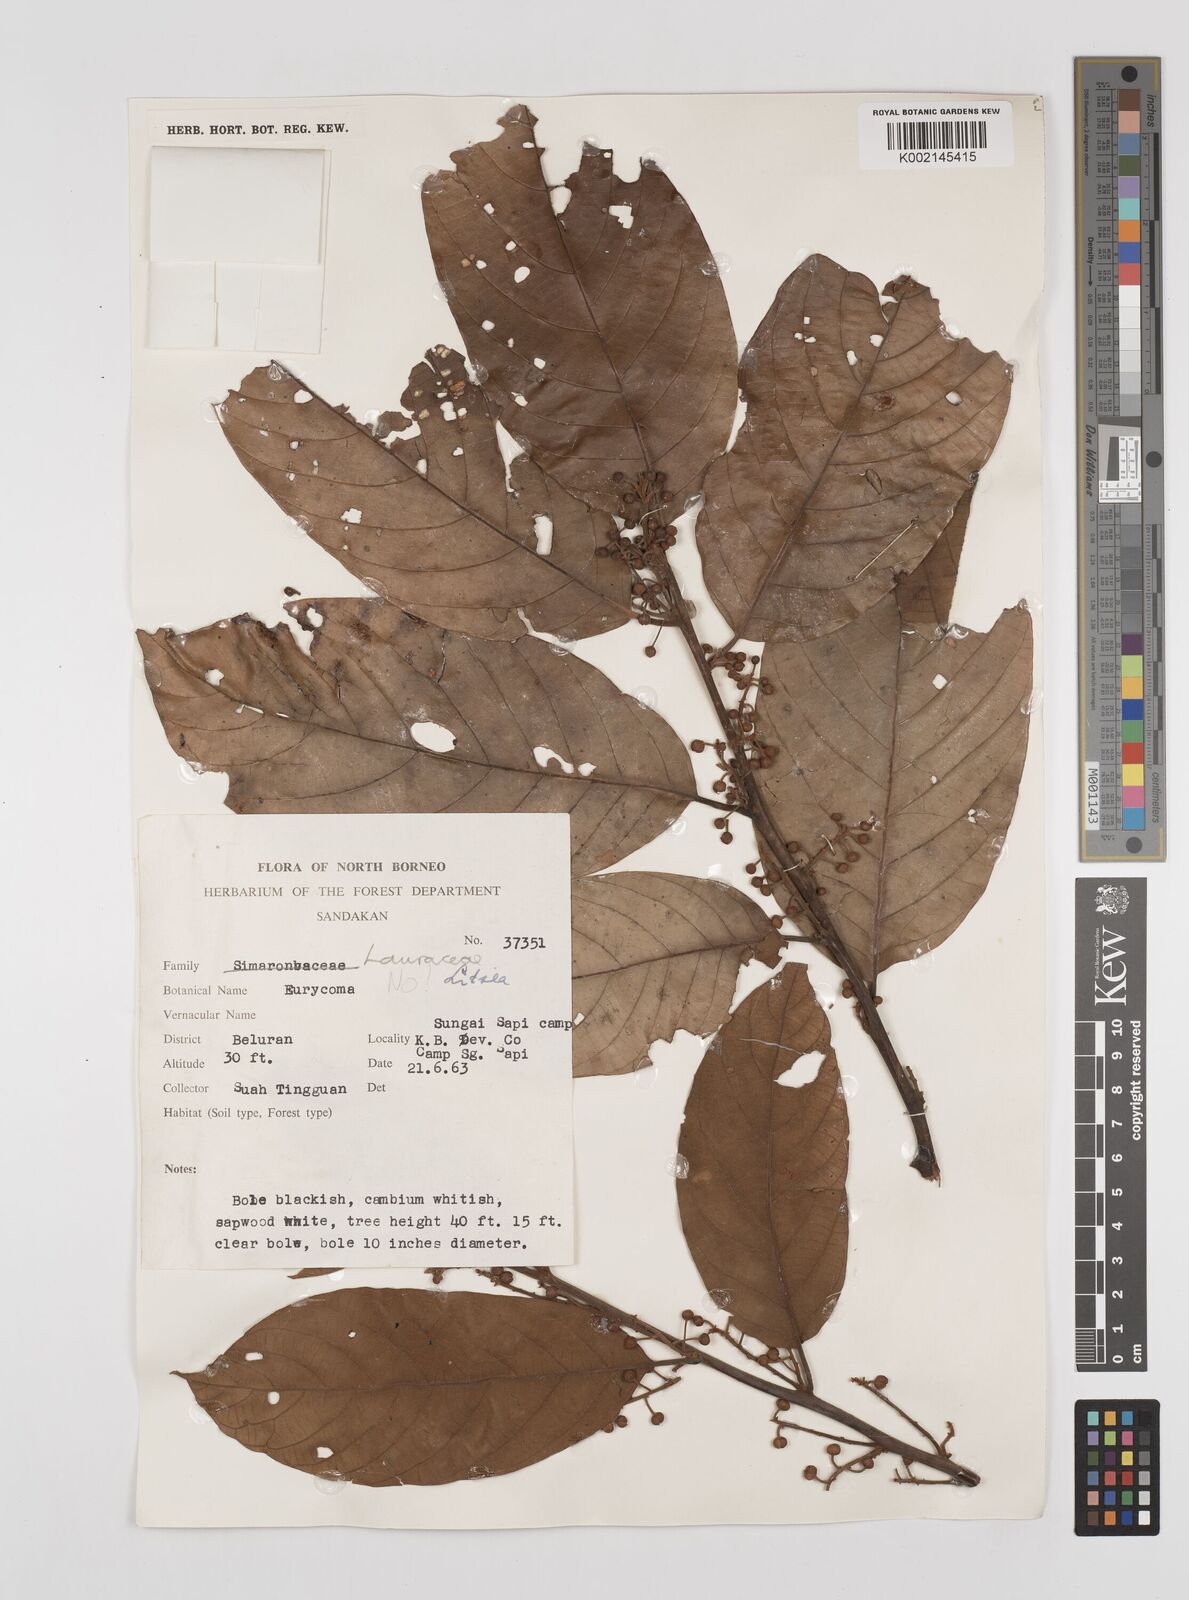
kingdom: Plantae
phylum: Tracheophyta
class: Magnoliopsida
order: Laurales
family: Lauraceae
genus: Litsea
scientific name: Litsea
